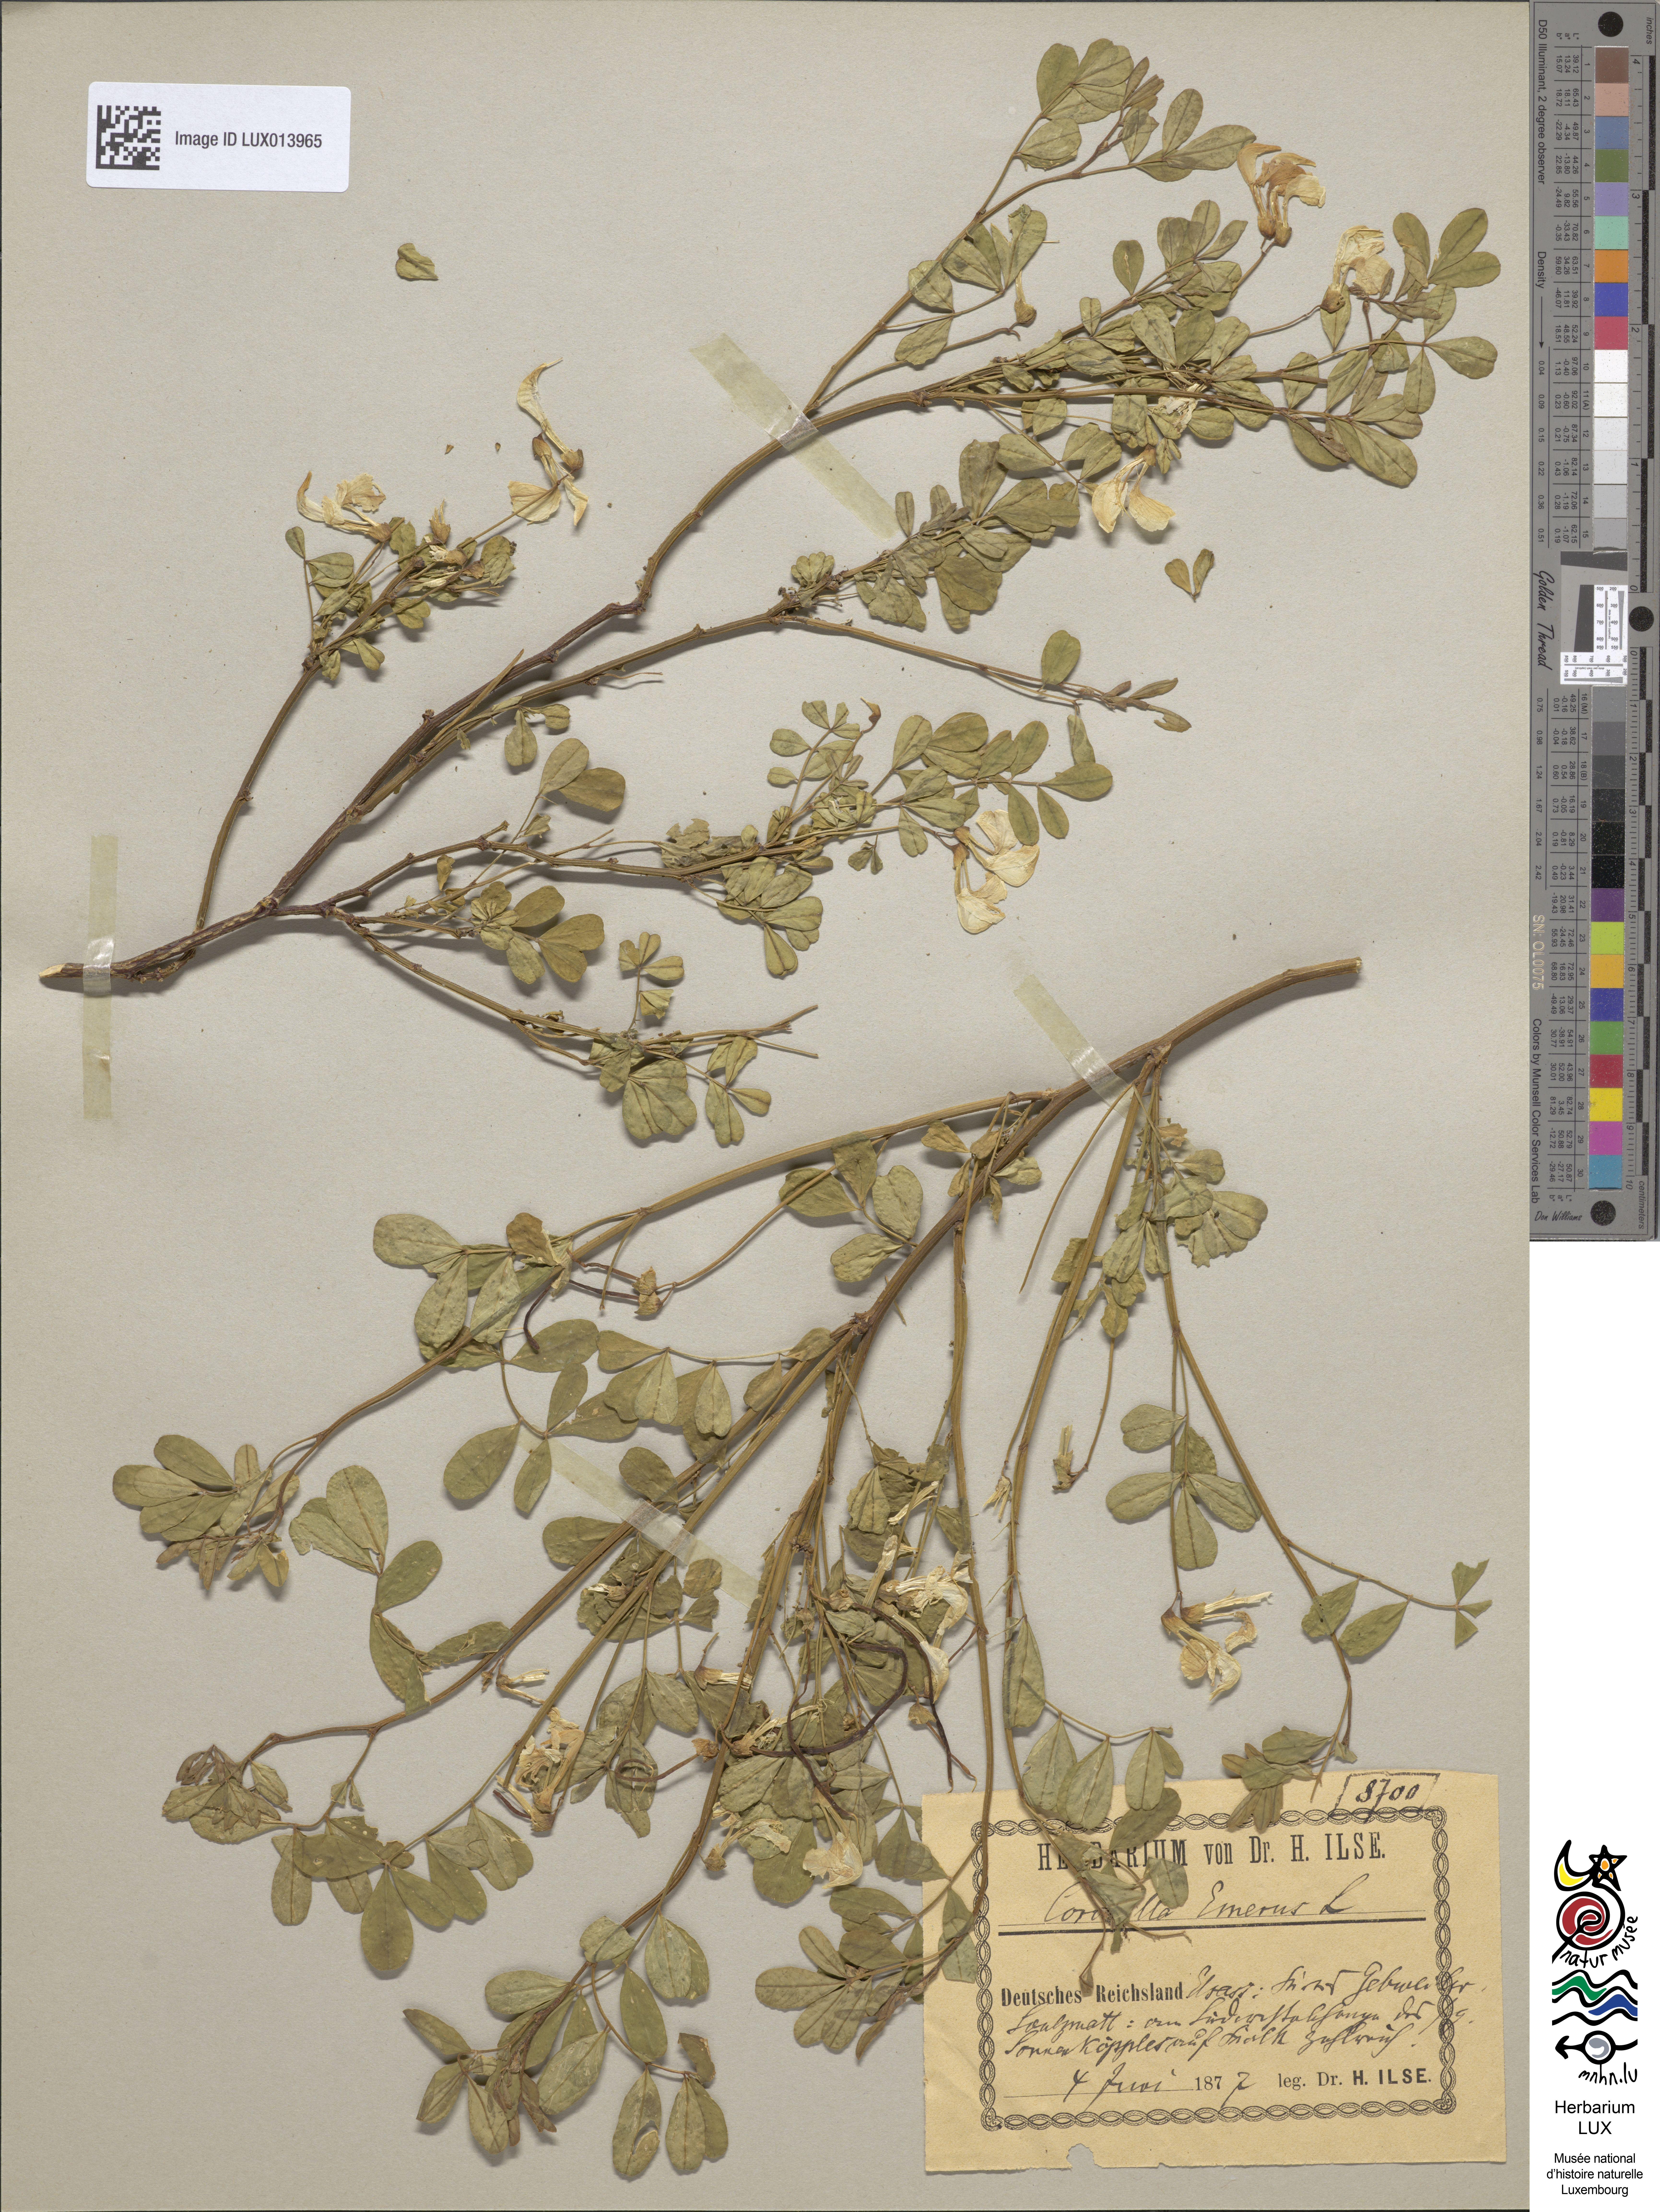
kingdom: Plantae
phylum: Tracheophyta
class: Magnoliopsida
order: Fabales
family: Fabaceae
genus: Hippocrepis
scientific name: Hippocrepis emerus
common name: Scorpion senna
